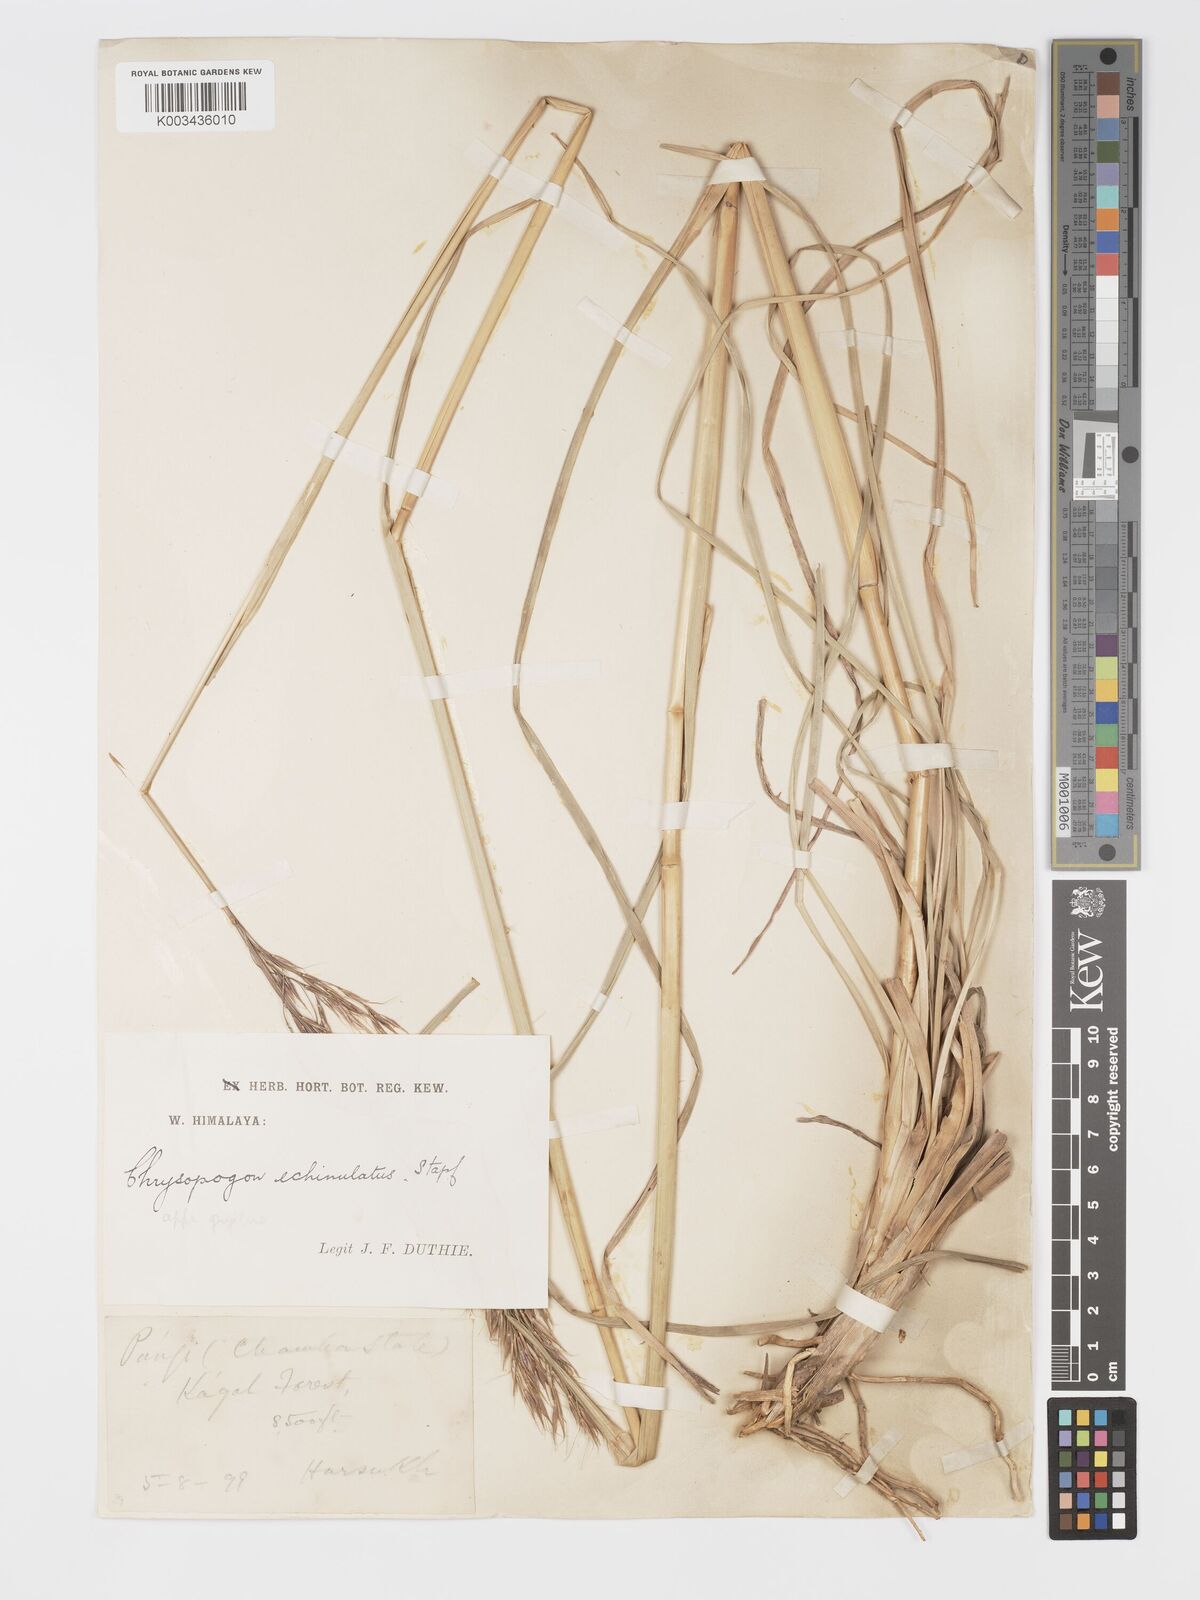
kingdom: Plantae
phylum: Tracheophyta
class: Liliopsida
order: Poales
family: Poaceae
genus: Chrysopogon
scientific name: Chrysopogon gryllus
